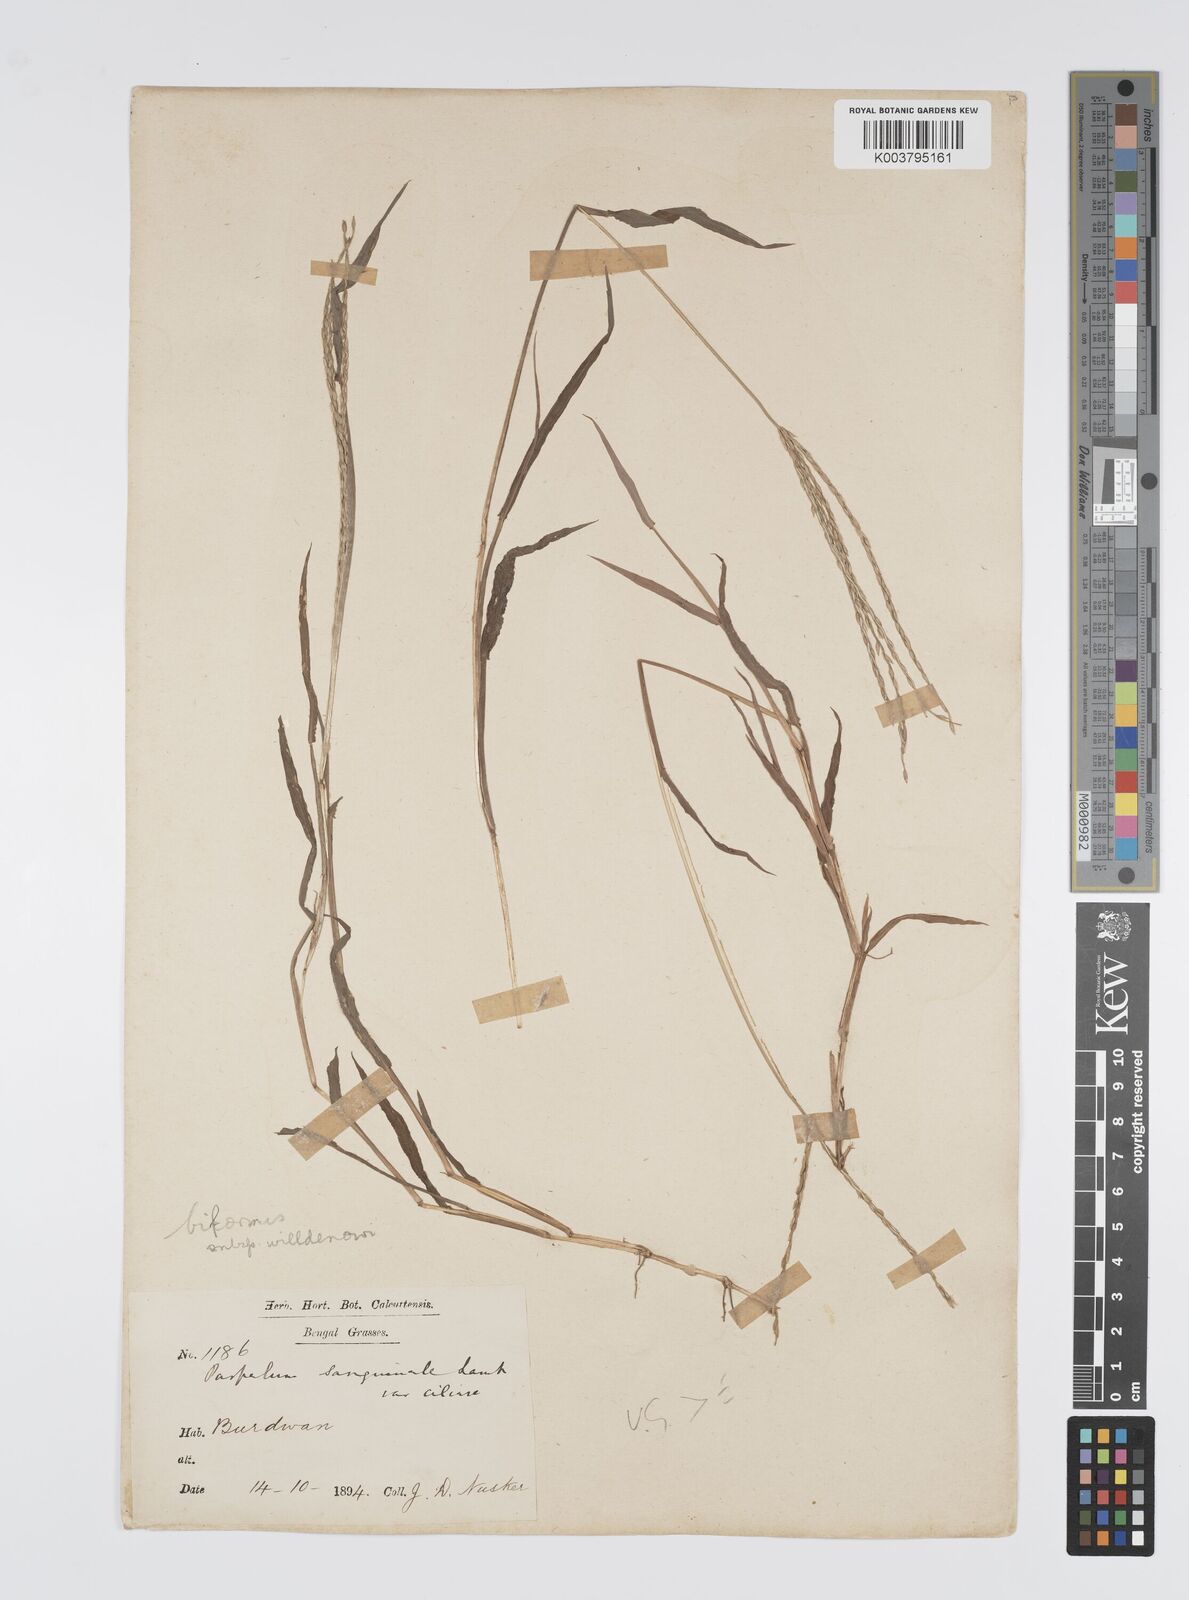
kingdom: Plantae
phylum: Tracheophyta
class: Liliopsida
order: Poales
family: Poaceae
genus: Digitaria
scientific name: Digitaria ciliaris
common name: Tropical finger-grass
